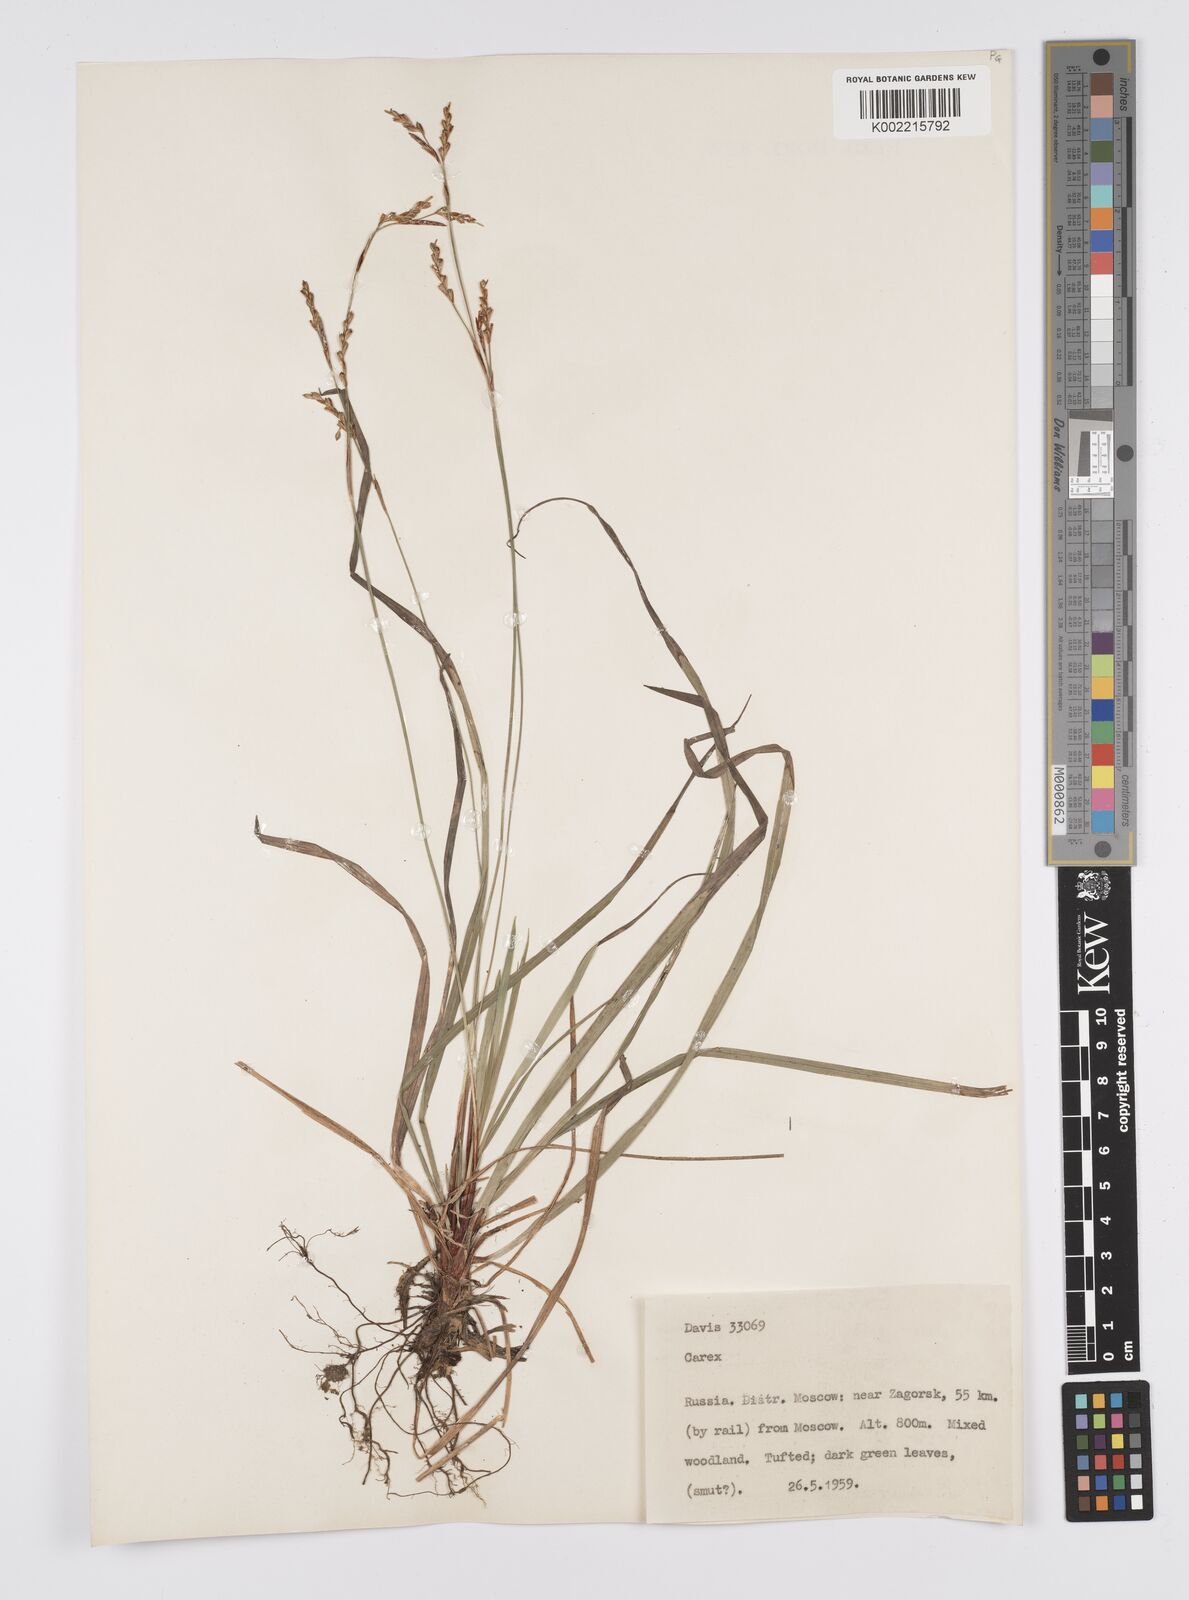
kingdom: Plantae
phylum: Tracheophyta
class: Liliopsida
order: Poales
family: Cyperaceae
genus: Carex
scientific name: Carex
